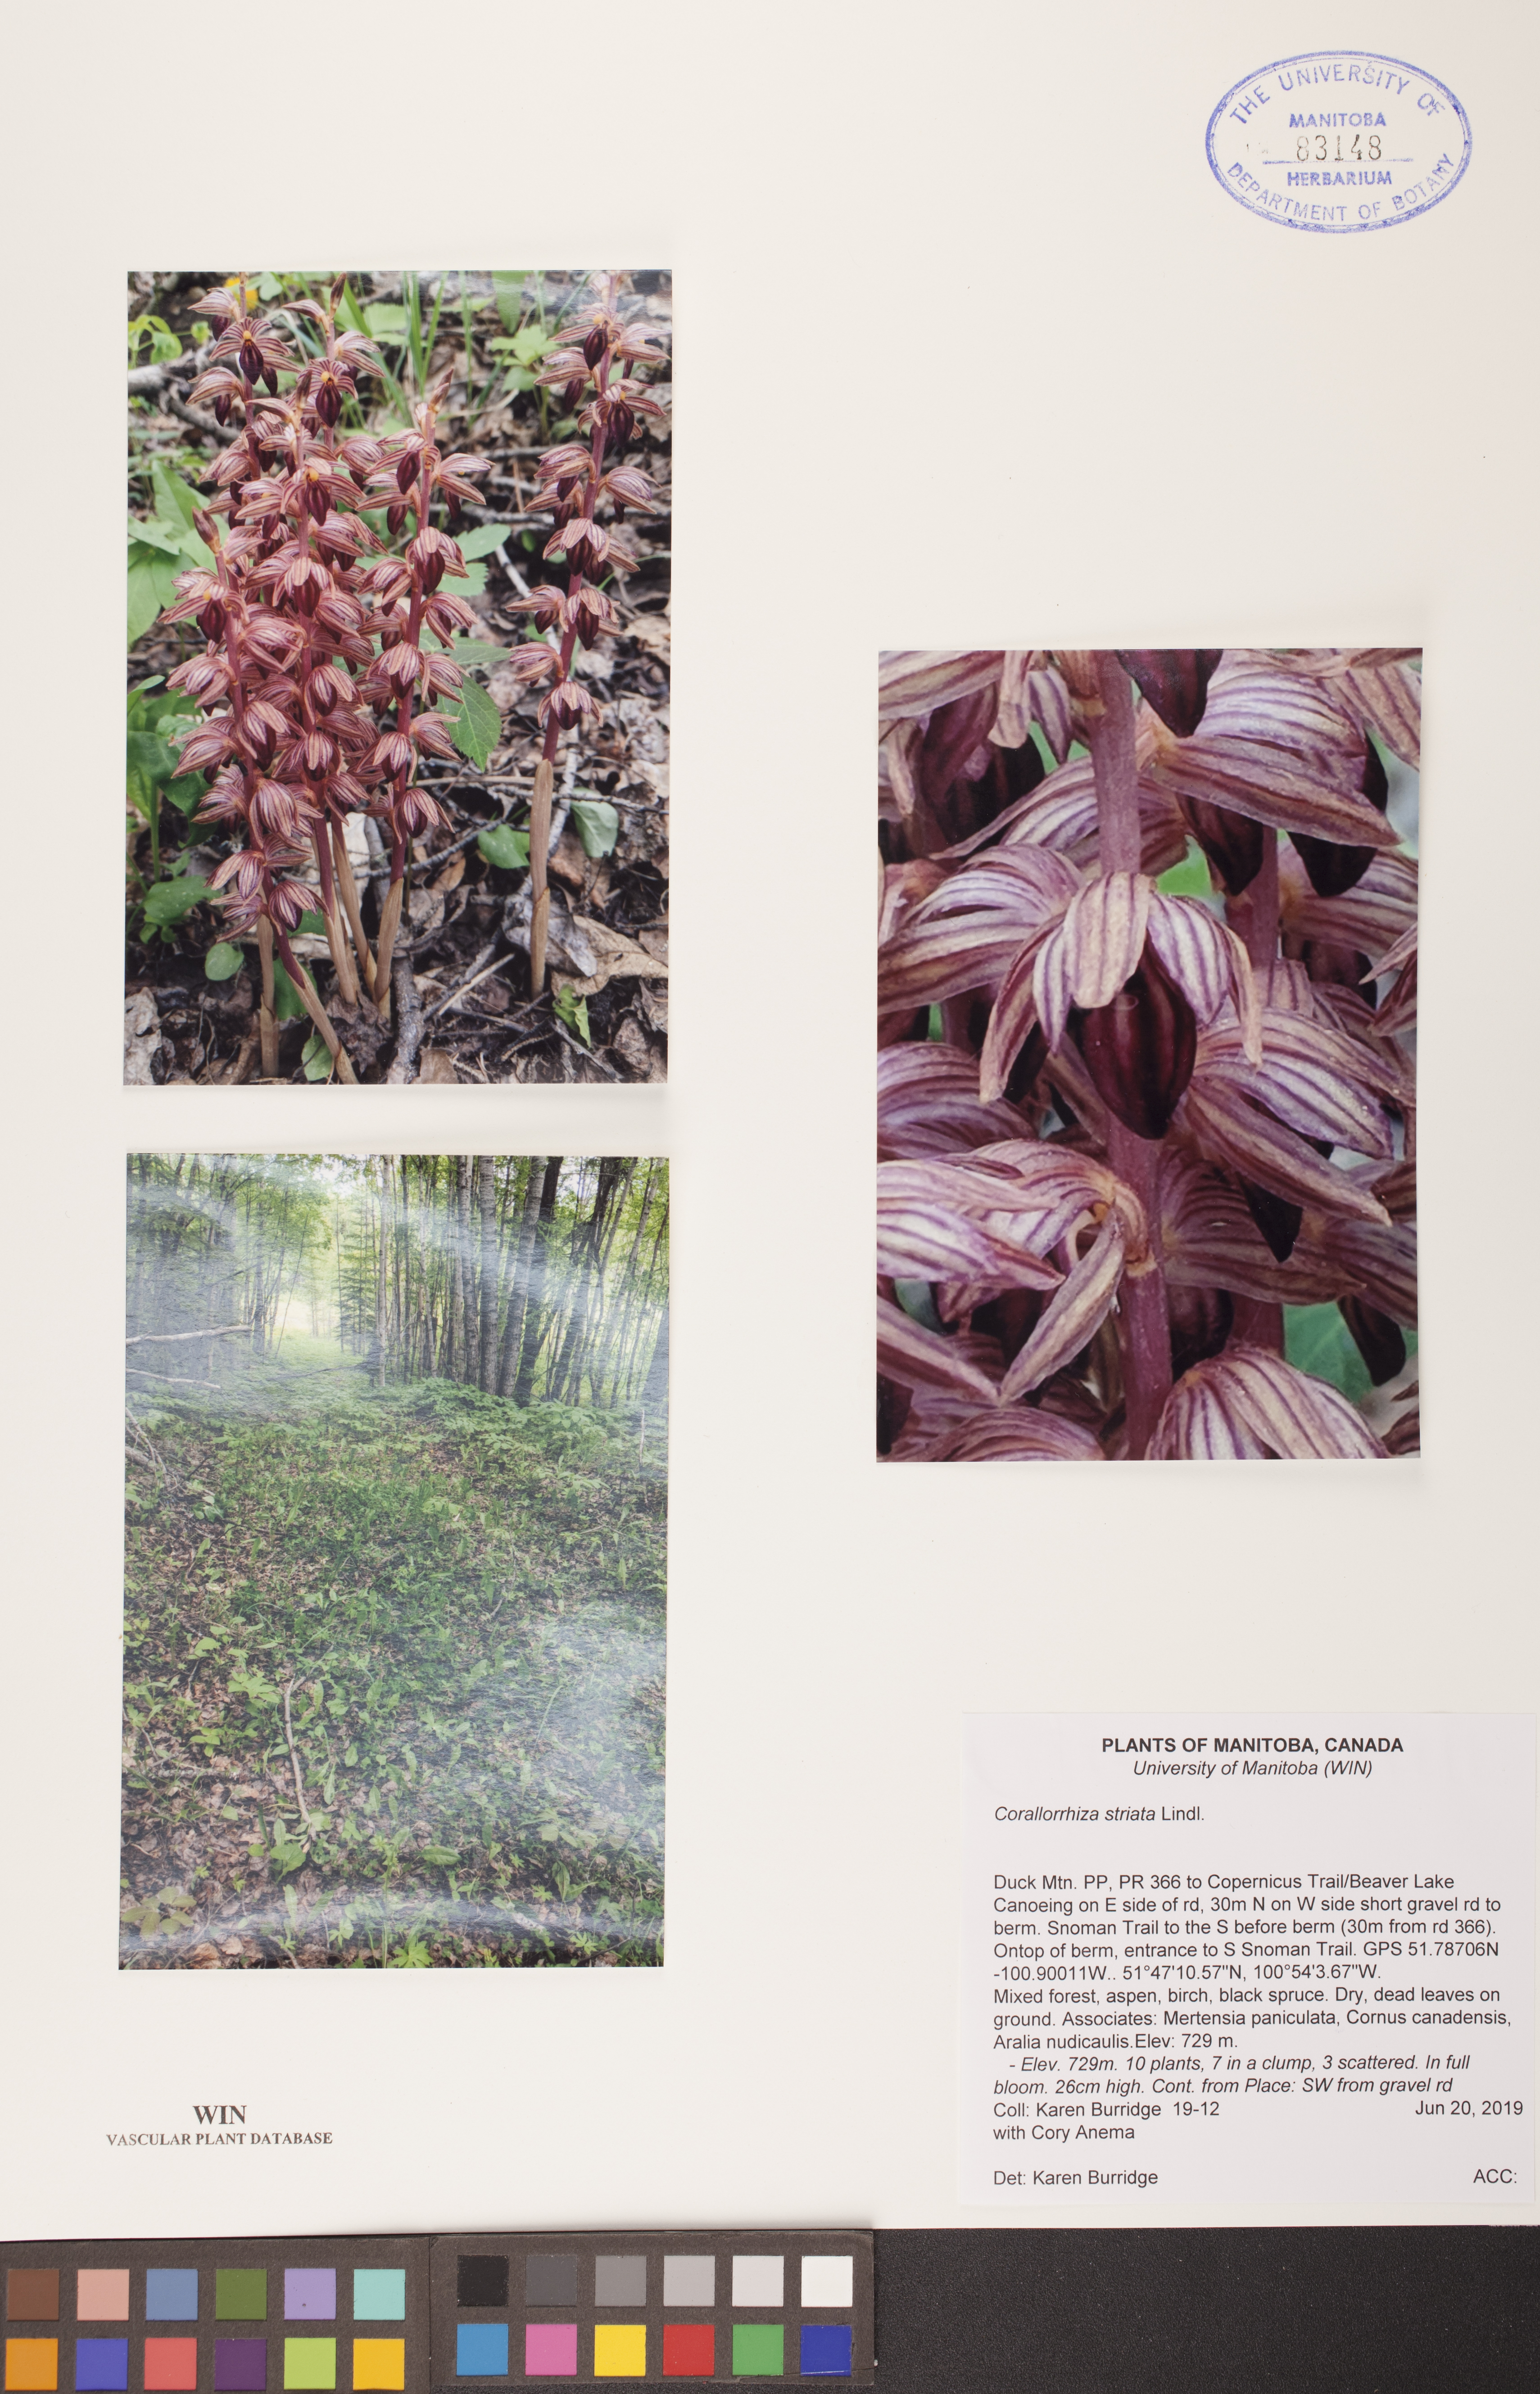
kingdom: Plantae
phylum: Tracheophyta
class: Liliopsida
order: Asparagales
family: Orchidaceae
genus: Corallorhiza
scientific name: Corallorhiza striata
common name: Hooded coralroot
